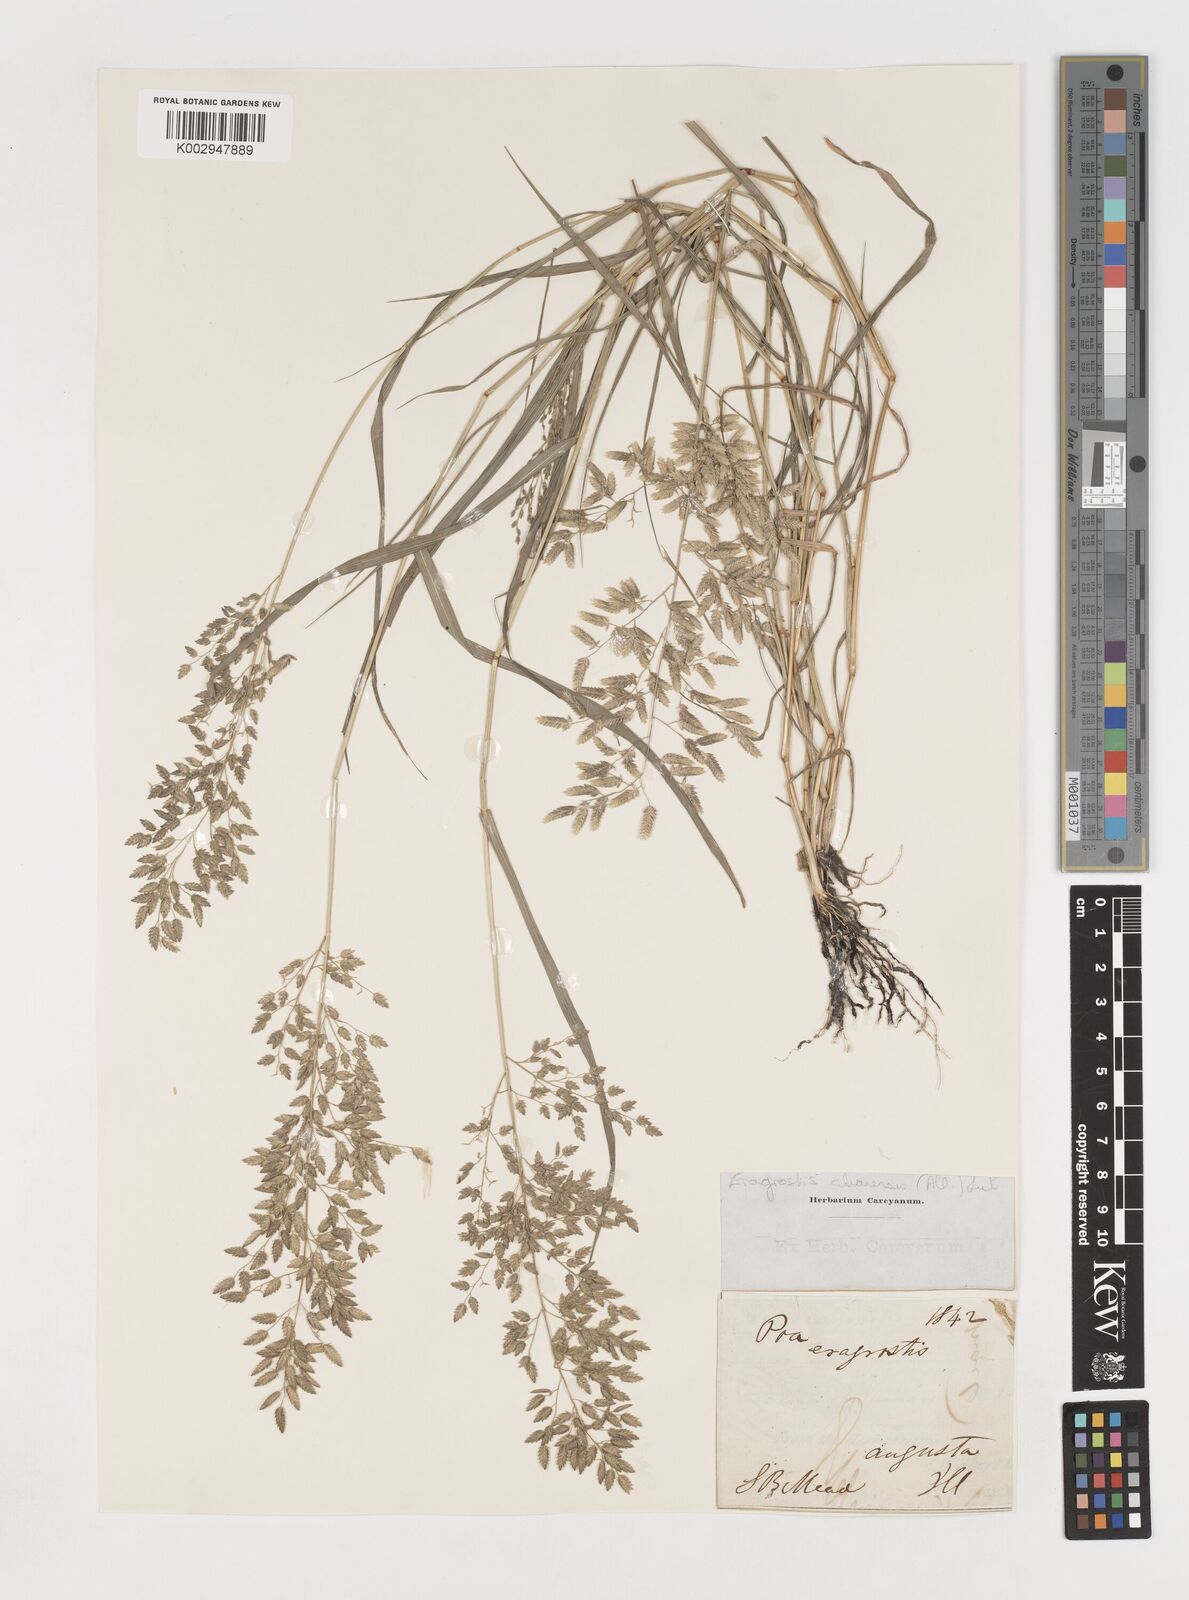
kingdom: Plantae
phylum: Tracheophyta
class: Liliopsida
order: Poales
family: Poaceae
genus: Eragrostis
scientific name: Eragrostis cilianensis
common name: Stinkgrass
